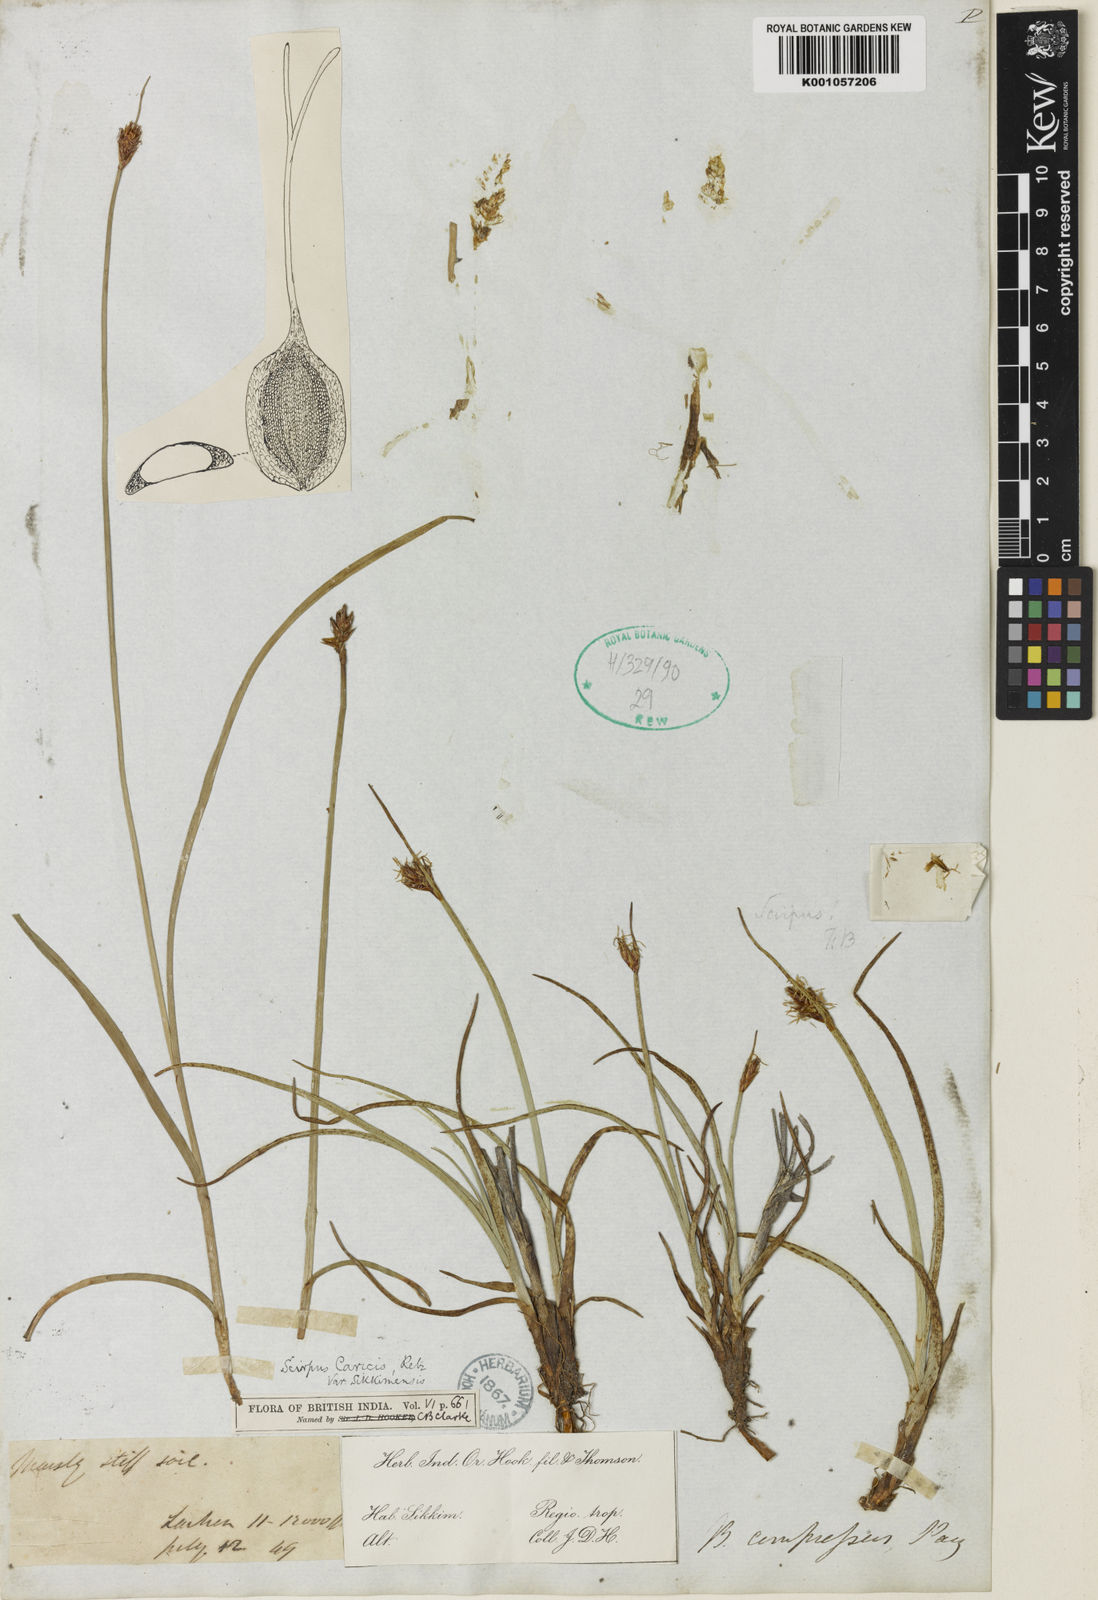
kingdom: Plantae
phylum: Tracheophyta
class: Liliopsida
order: Poales
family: Cyperaceae
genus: Blysmus
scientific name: Blysmus compressus
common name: Flat-sedge
